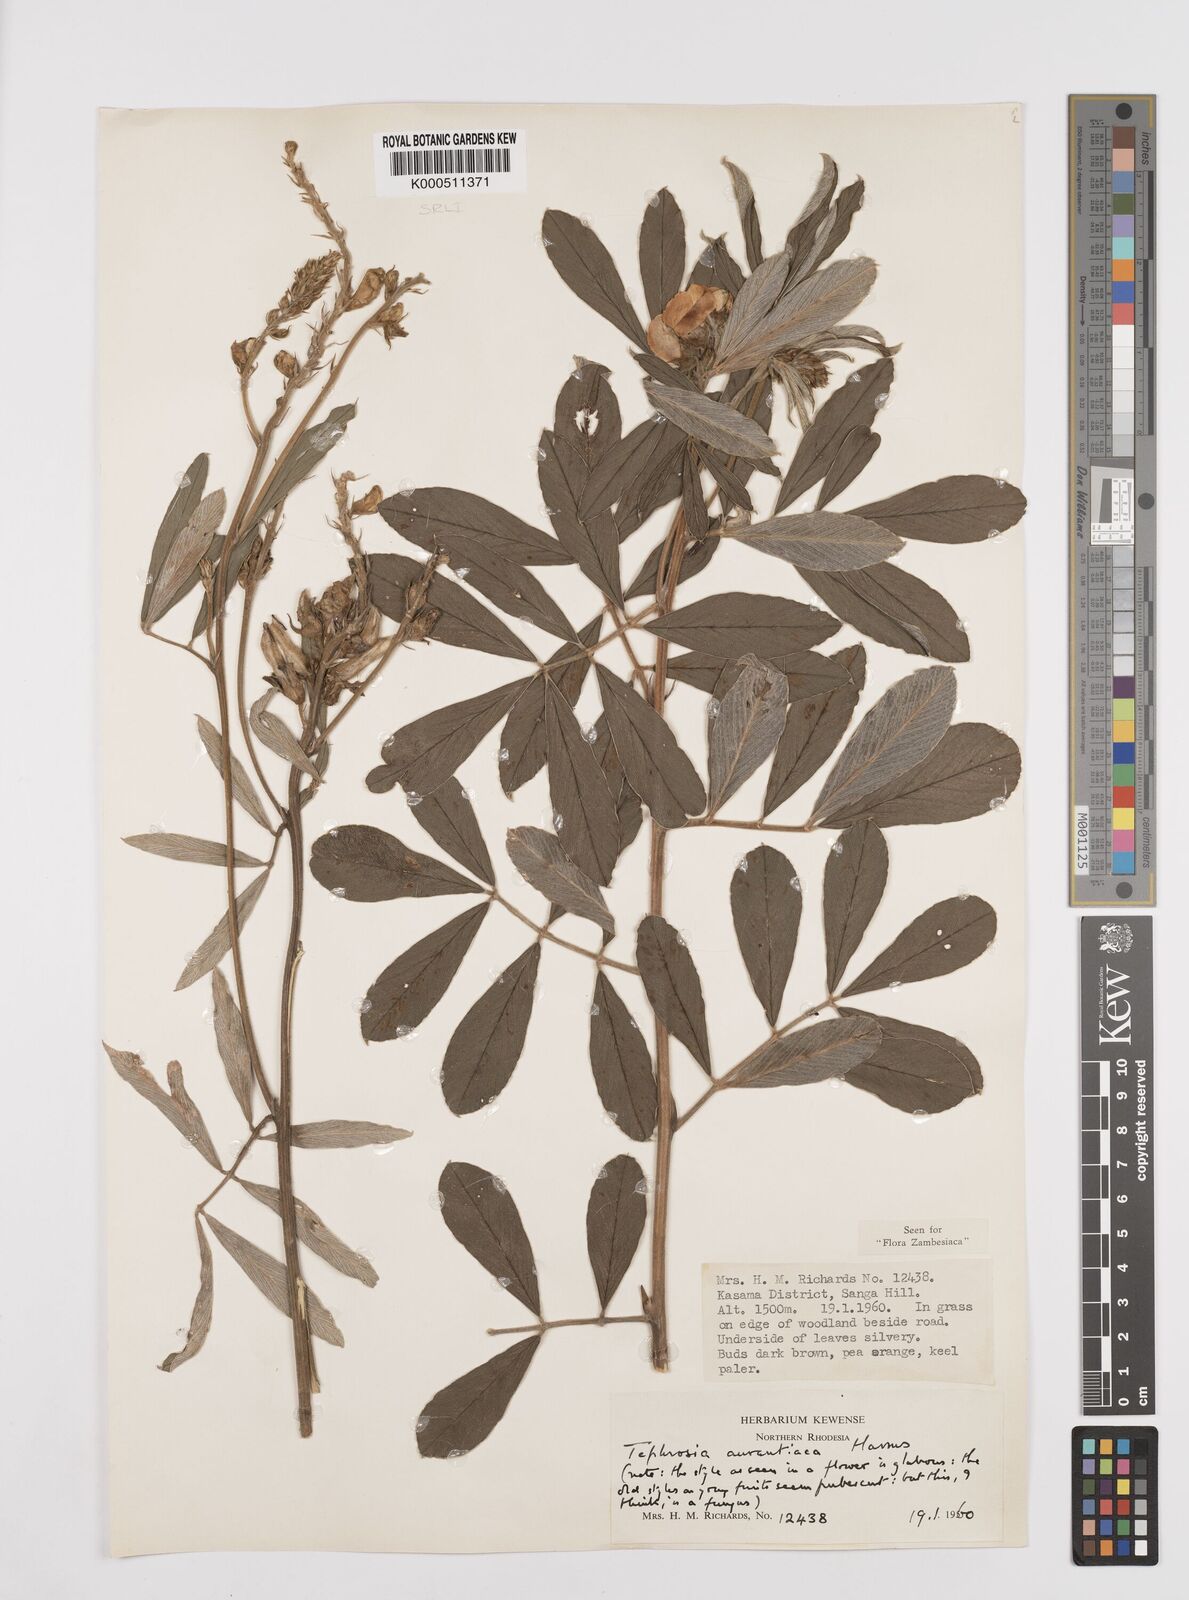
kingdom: Plantae
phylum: Tracheophyta
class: Magnoliopsida
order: Fabales
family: Fabaceae
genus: Tephrosia
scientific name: Tephrosia aurantiaca
